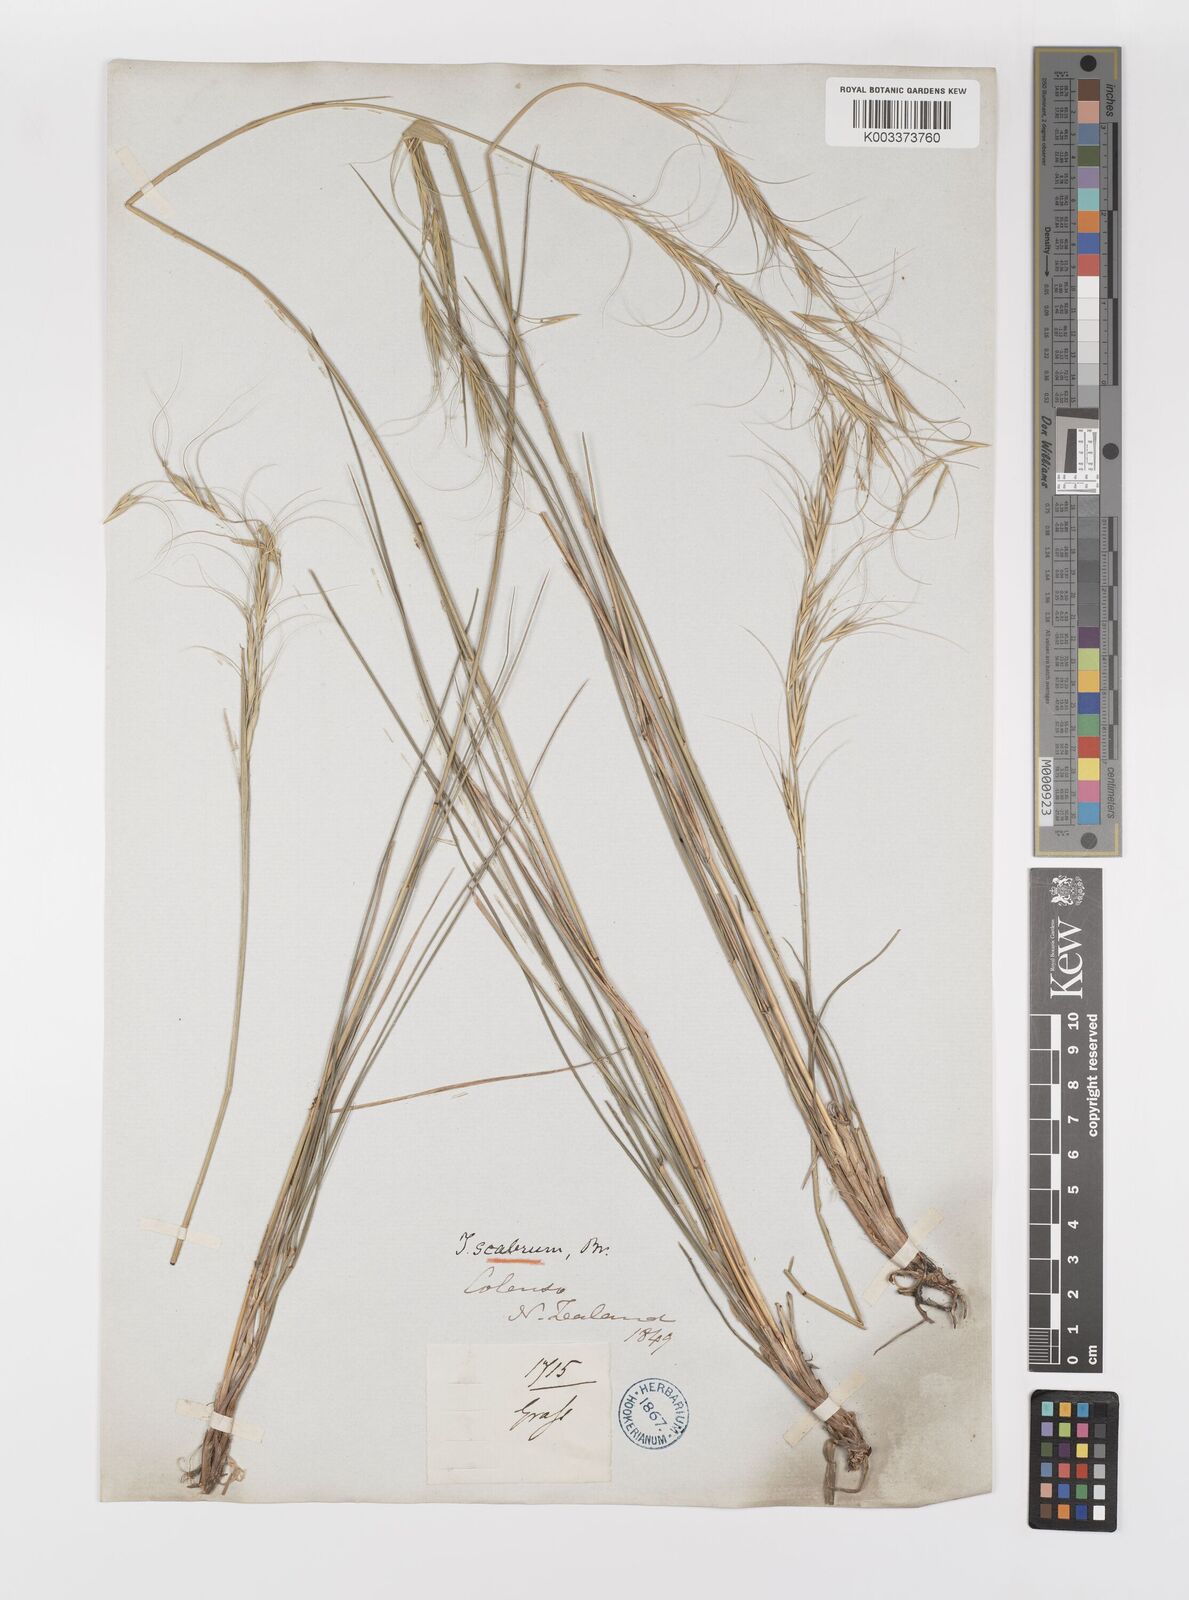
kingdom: Plantae
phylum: Tracheophyta
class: Liliopsida
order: Poales
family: Poaceae
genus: Anthosachne
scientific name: Anthosachne scabra
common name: Common wheatgrass
